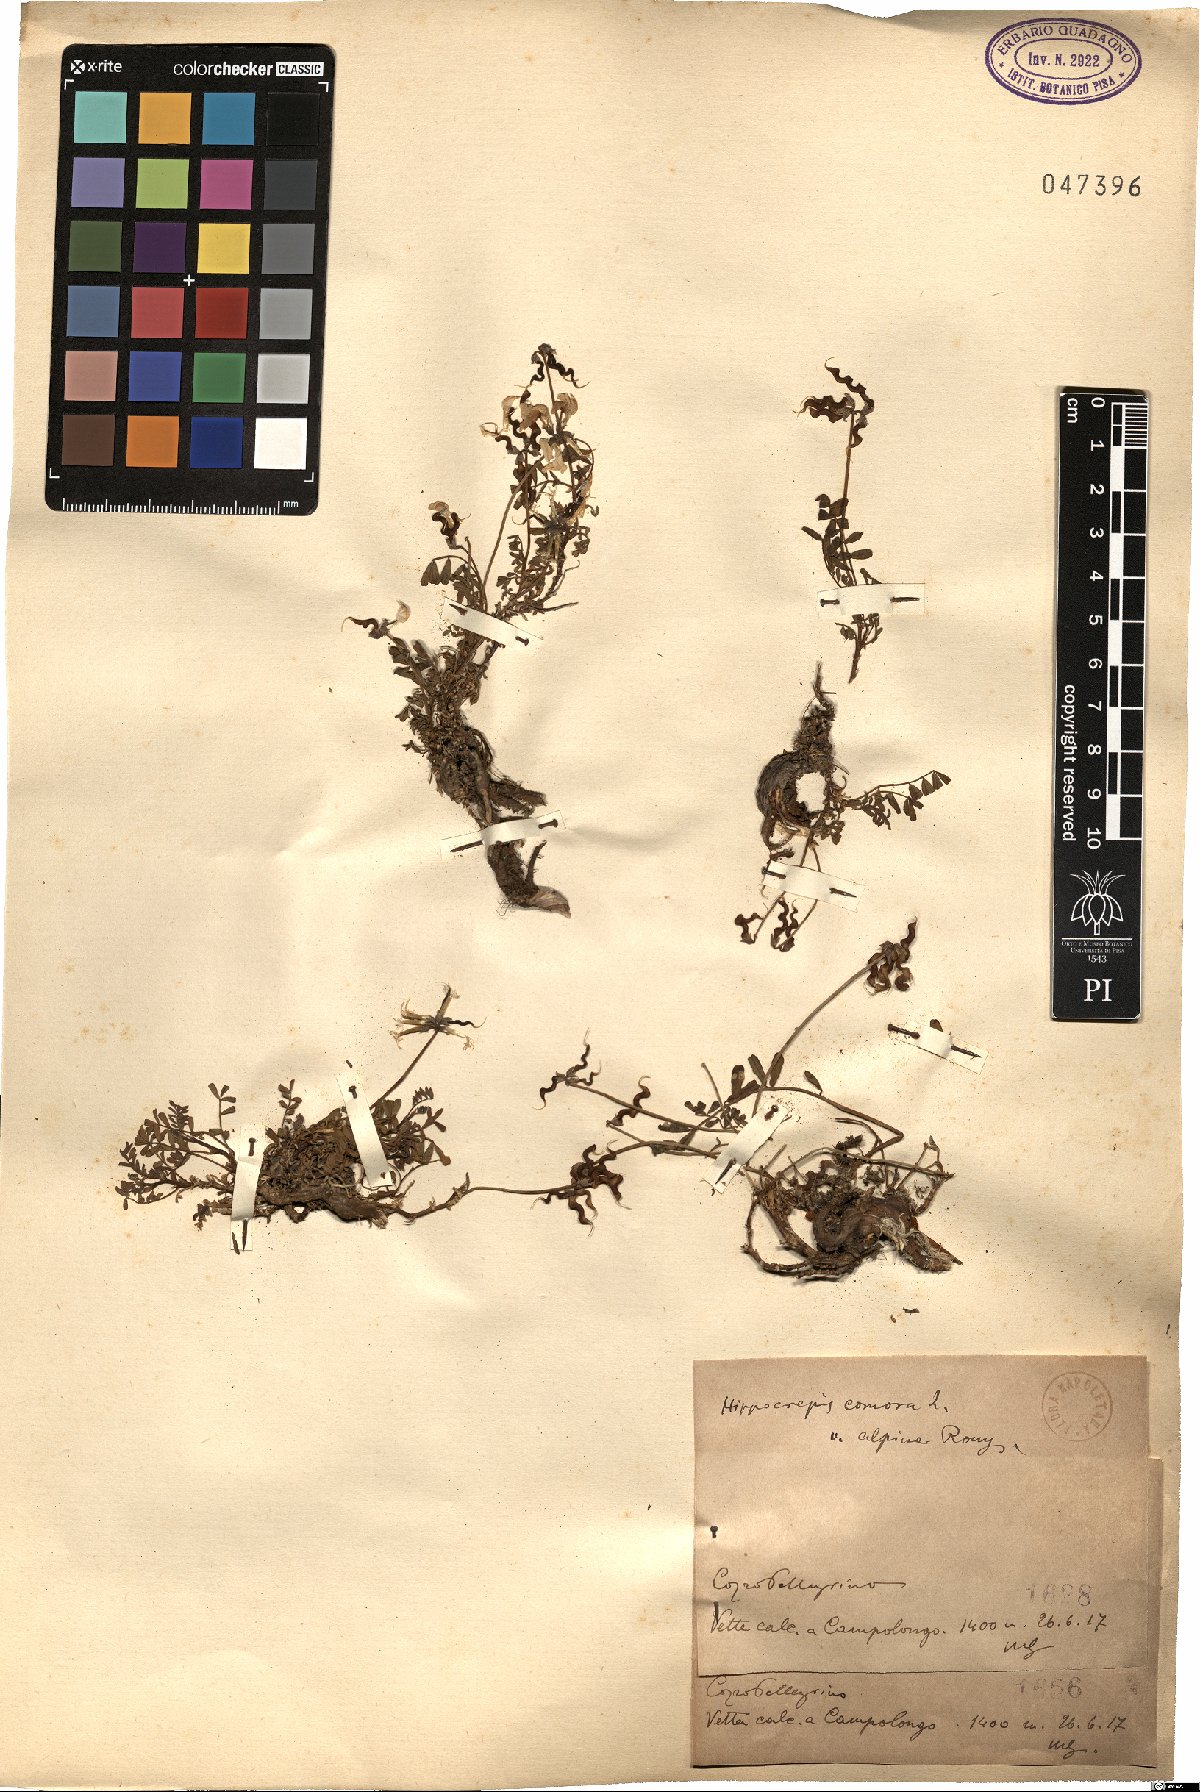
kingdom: Plantae
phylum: Tracheophyta
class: Magnoliopsida
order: Fabales
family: Fabaceae
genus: Hippocrepis
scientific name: Hippocrepis comosa
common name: Horseshoe vetch
